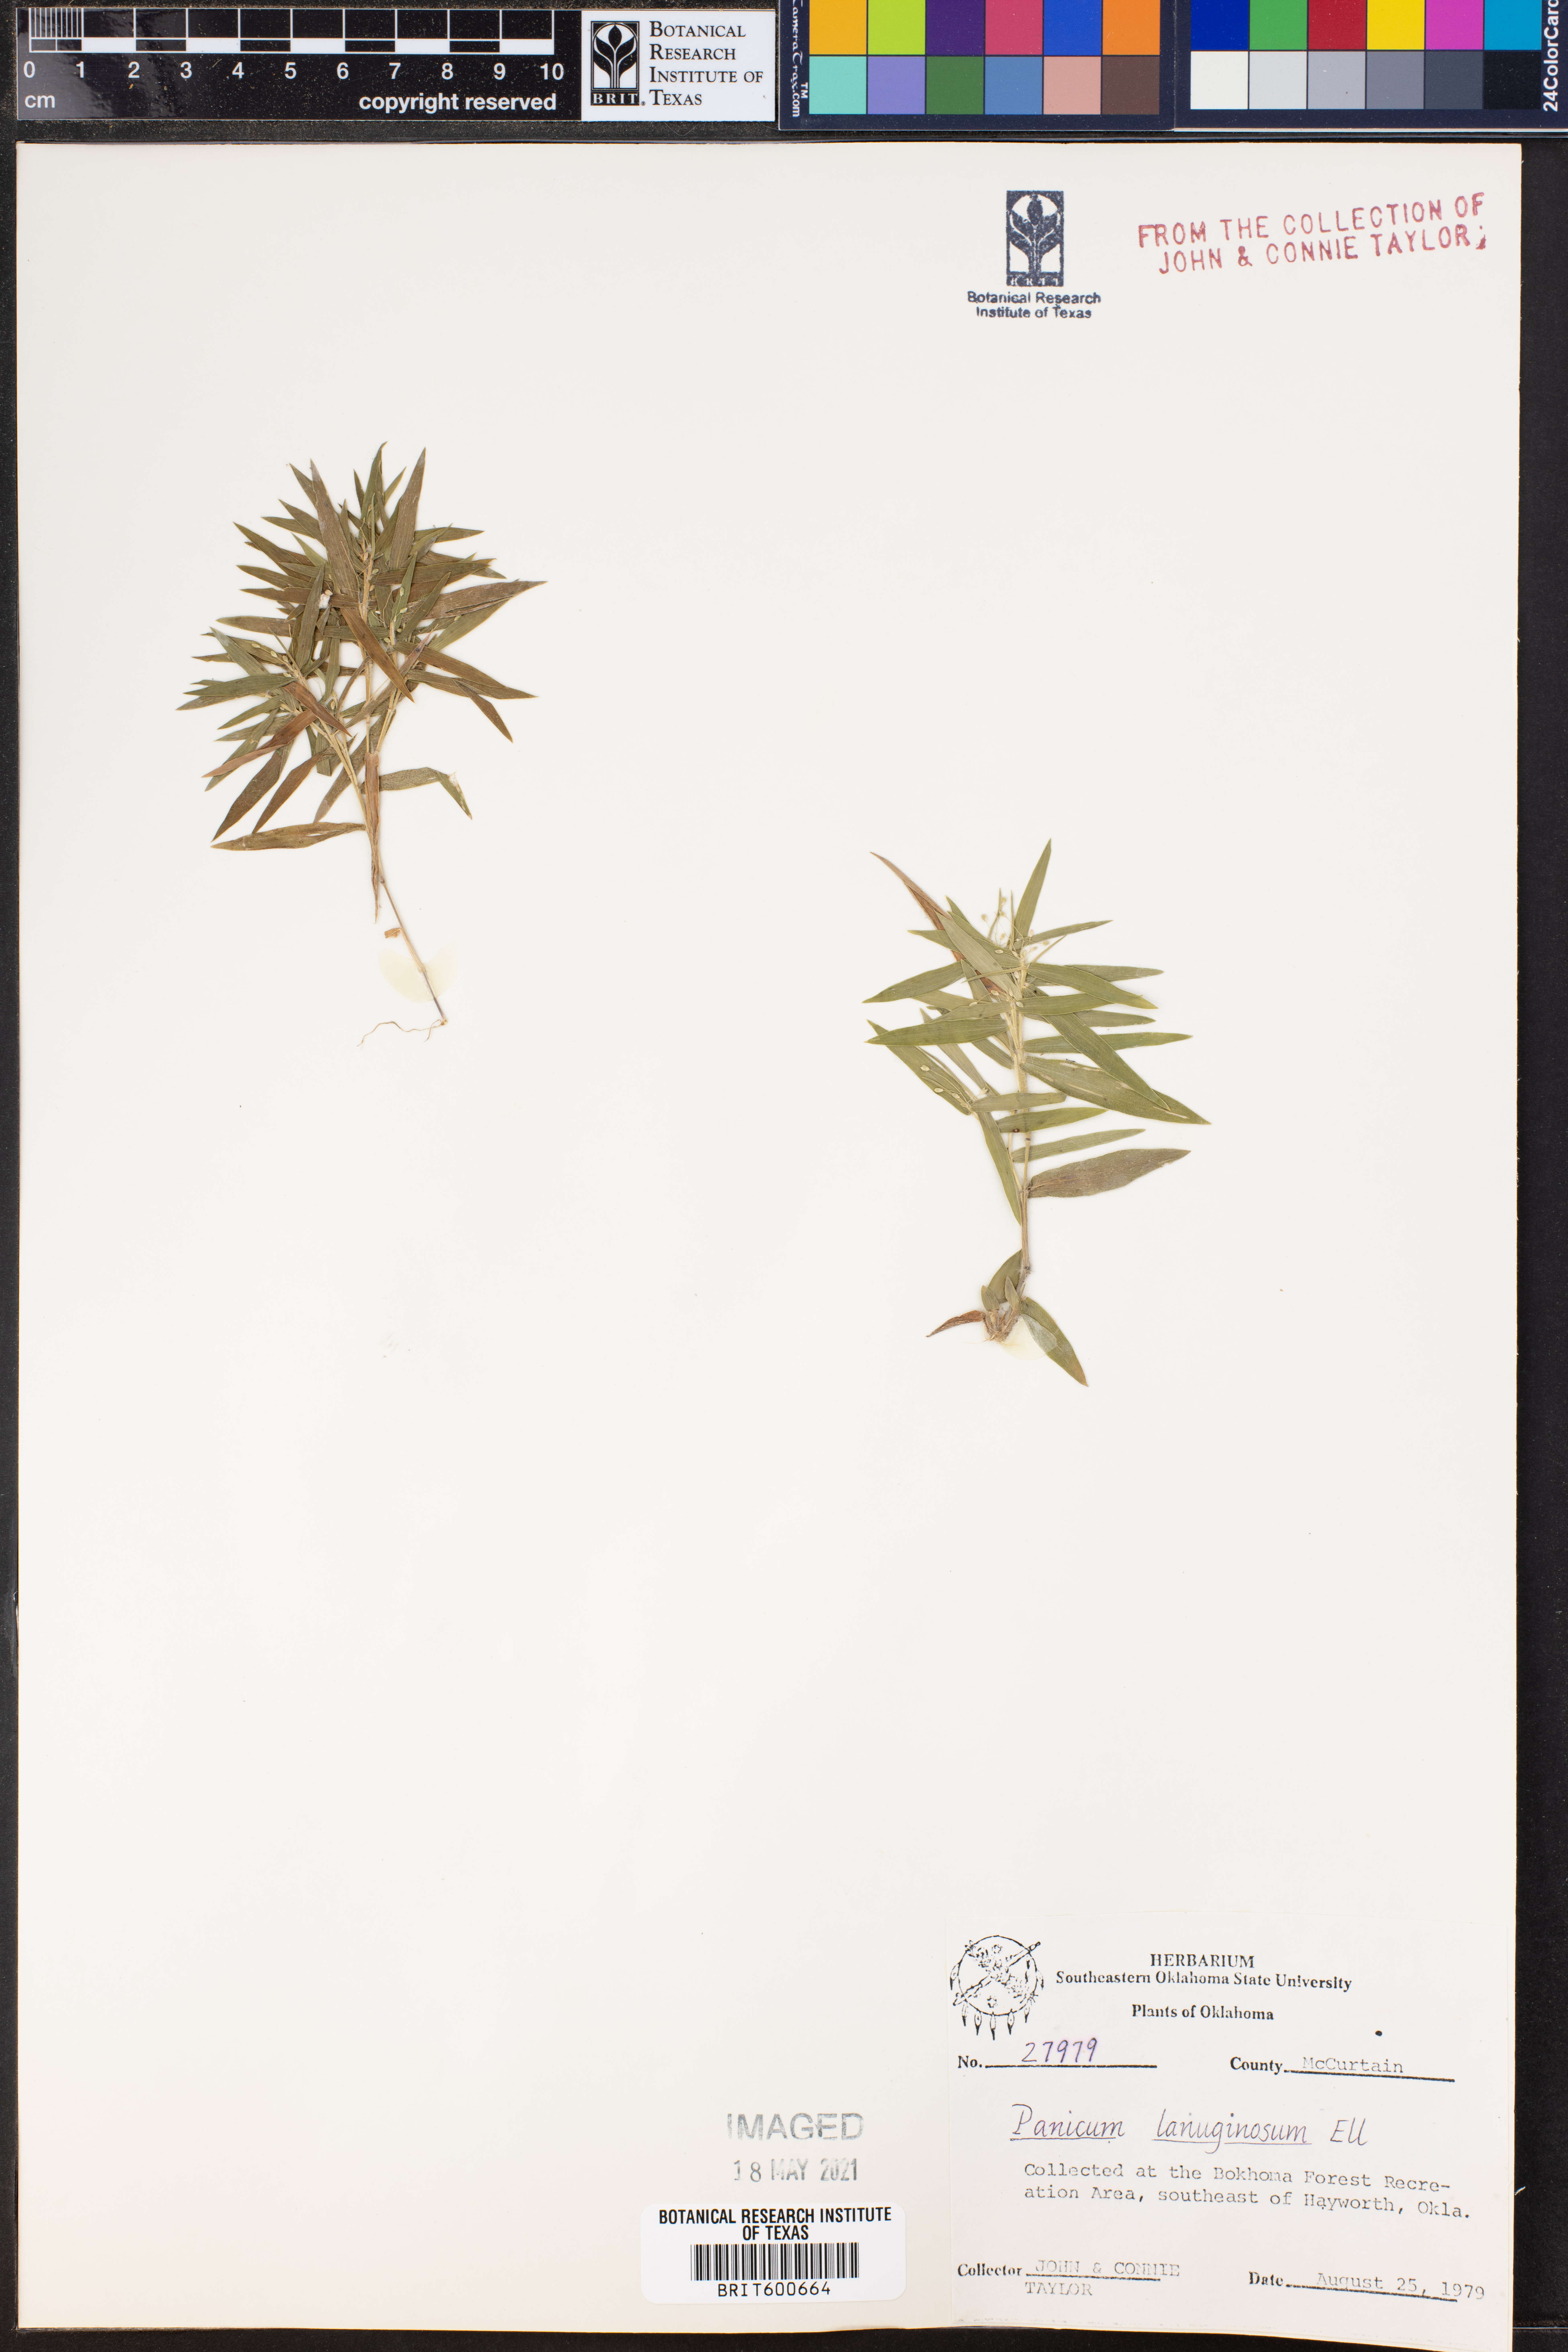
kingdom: Plantae
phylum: Tracheophyta
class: Liliopsida
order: Poales
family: Poaceae
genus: Dichanthelium
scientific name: Dichanthelium lanuginosum
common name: Woolly panicgrass
